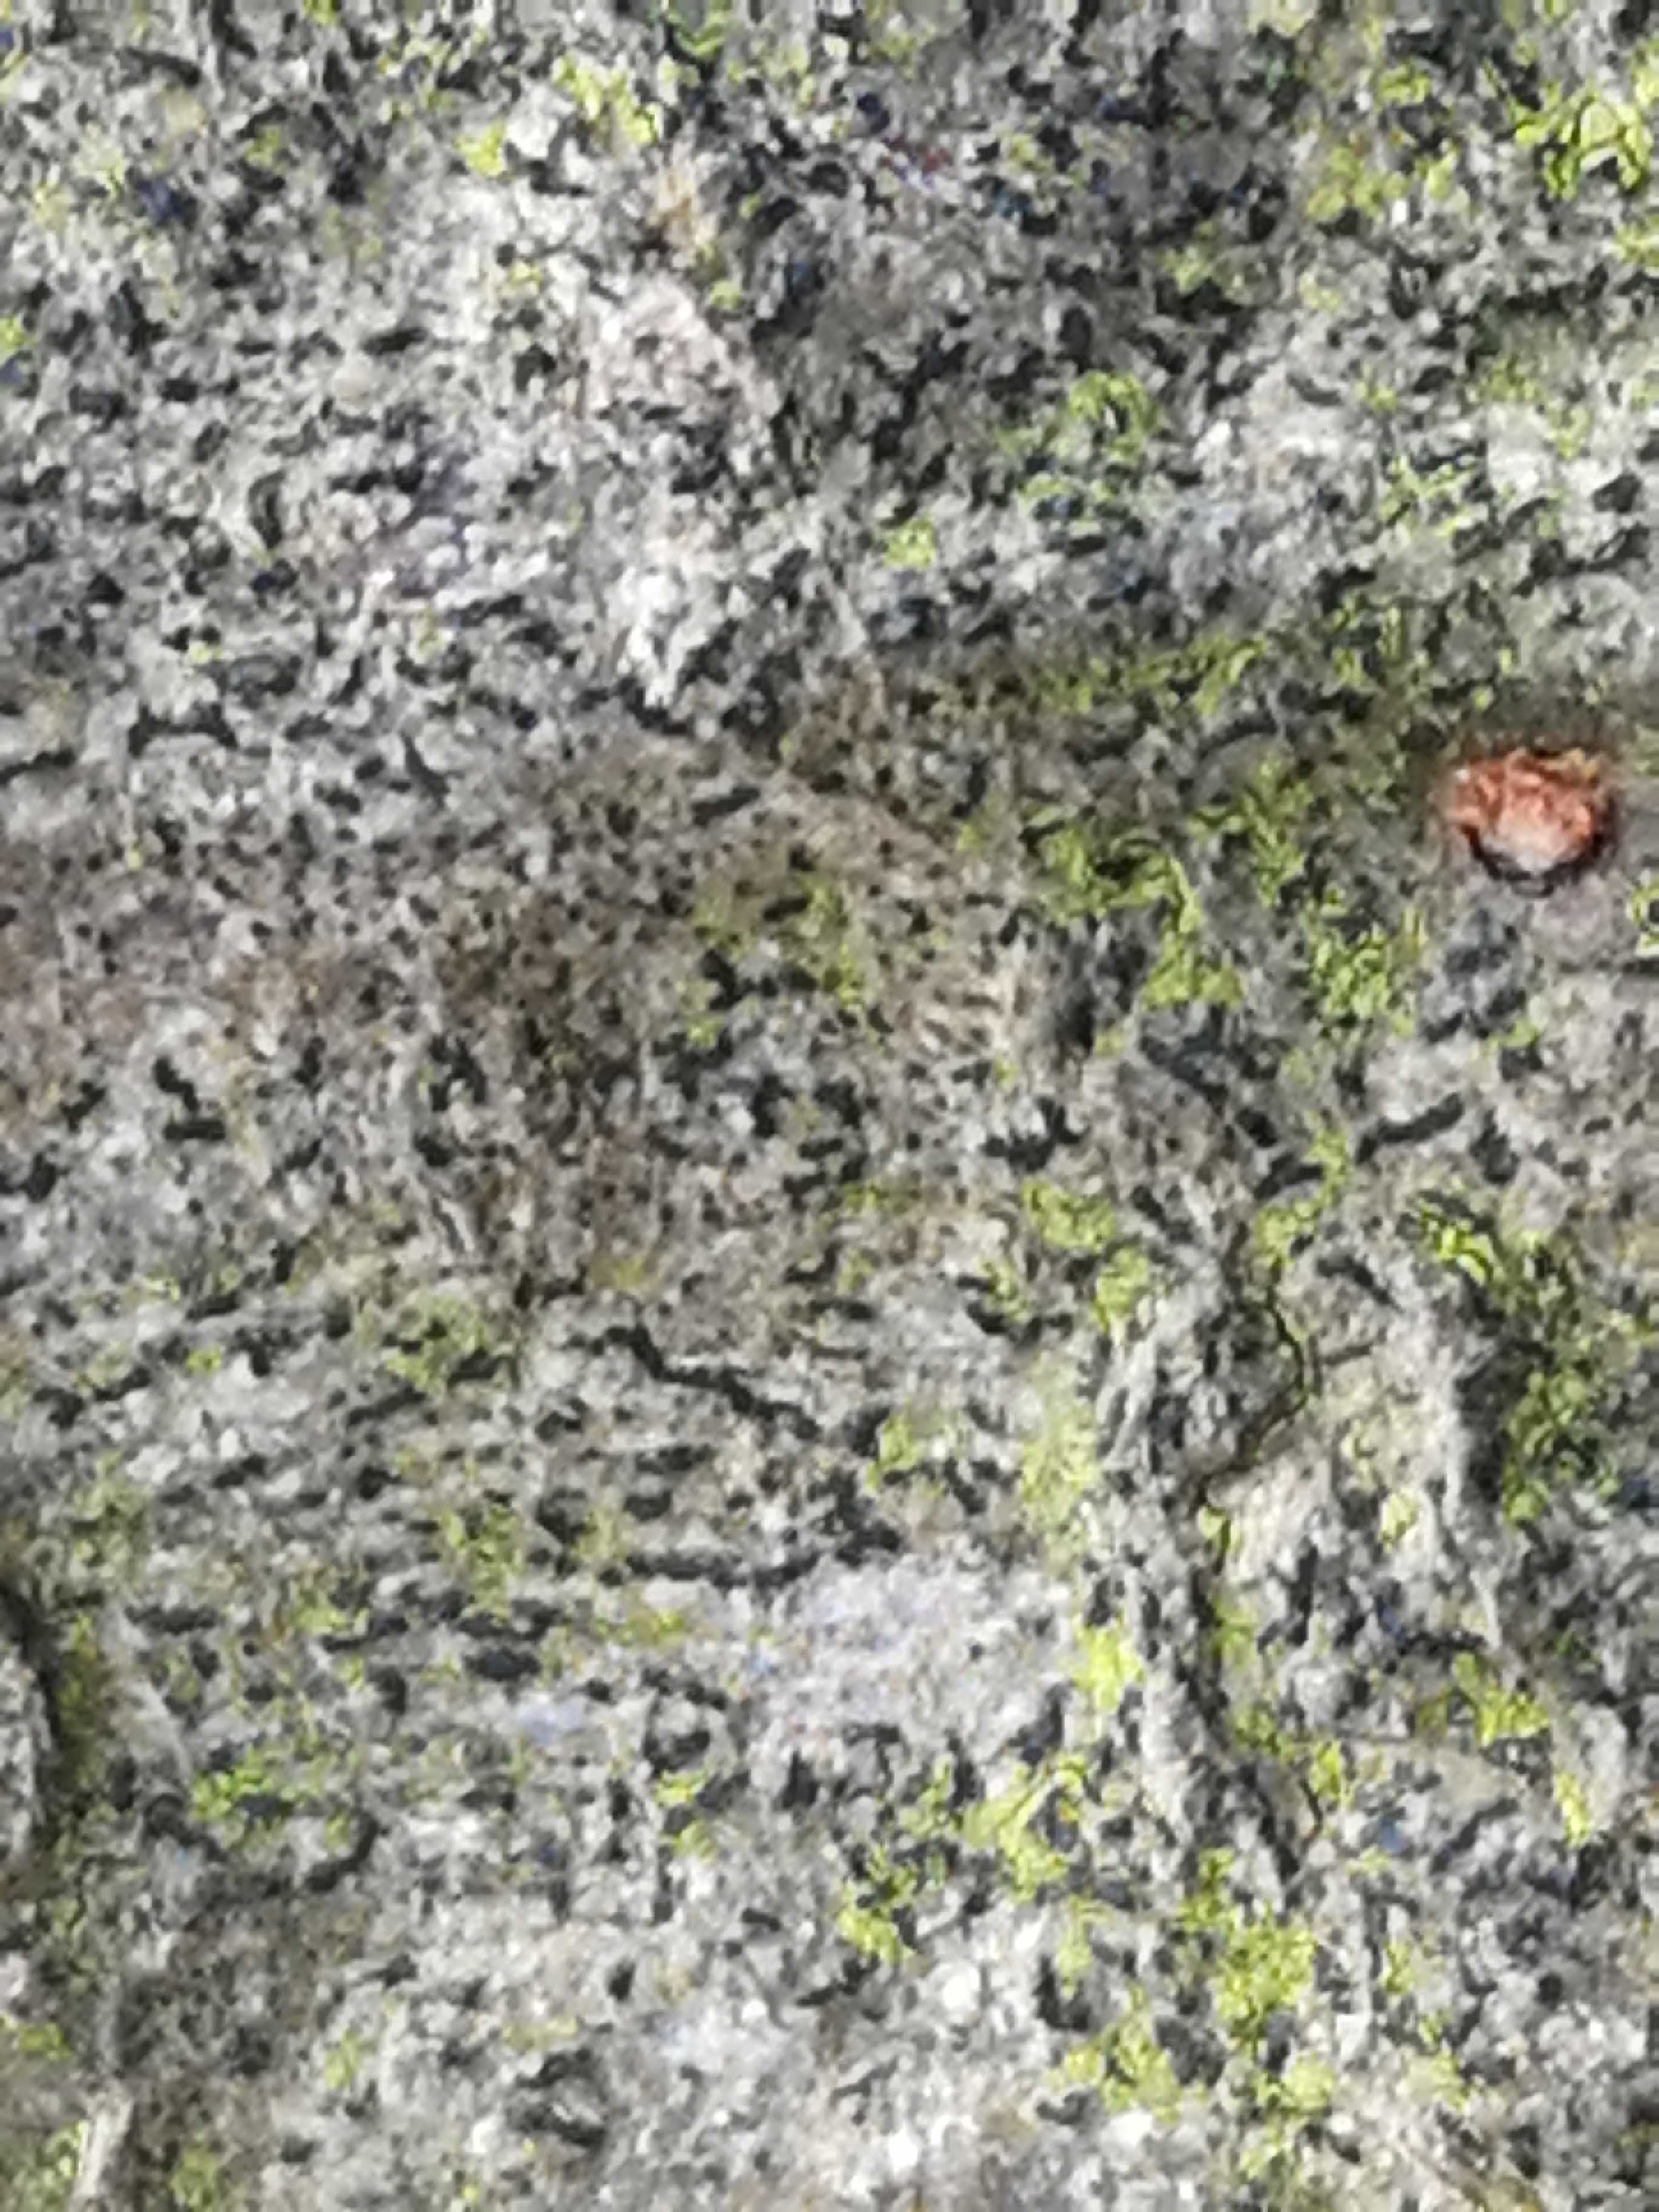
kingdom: Fungi
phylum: Ascomycota
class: Arthoniomycetes
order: Arthoniales
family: Opegraphaceae
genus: Opegrapha
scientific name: Opegrapha
